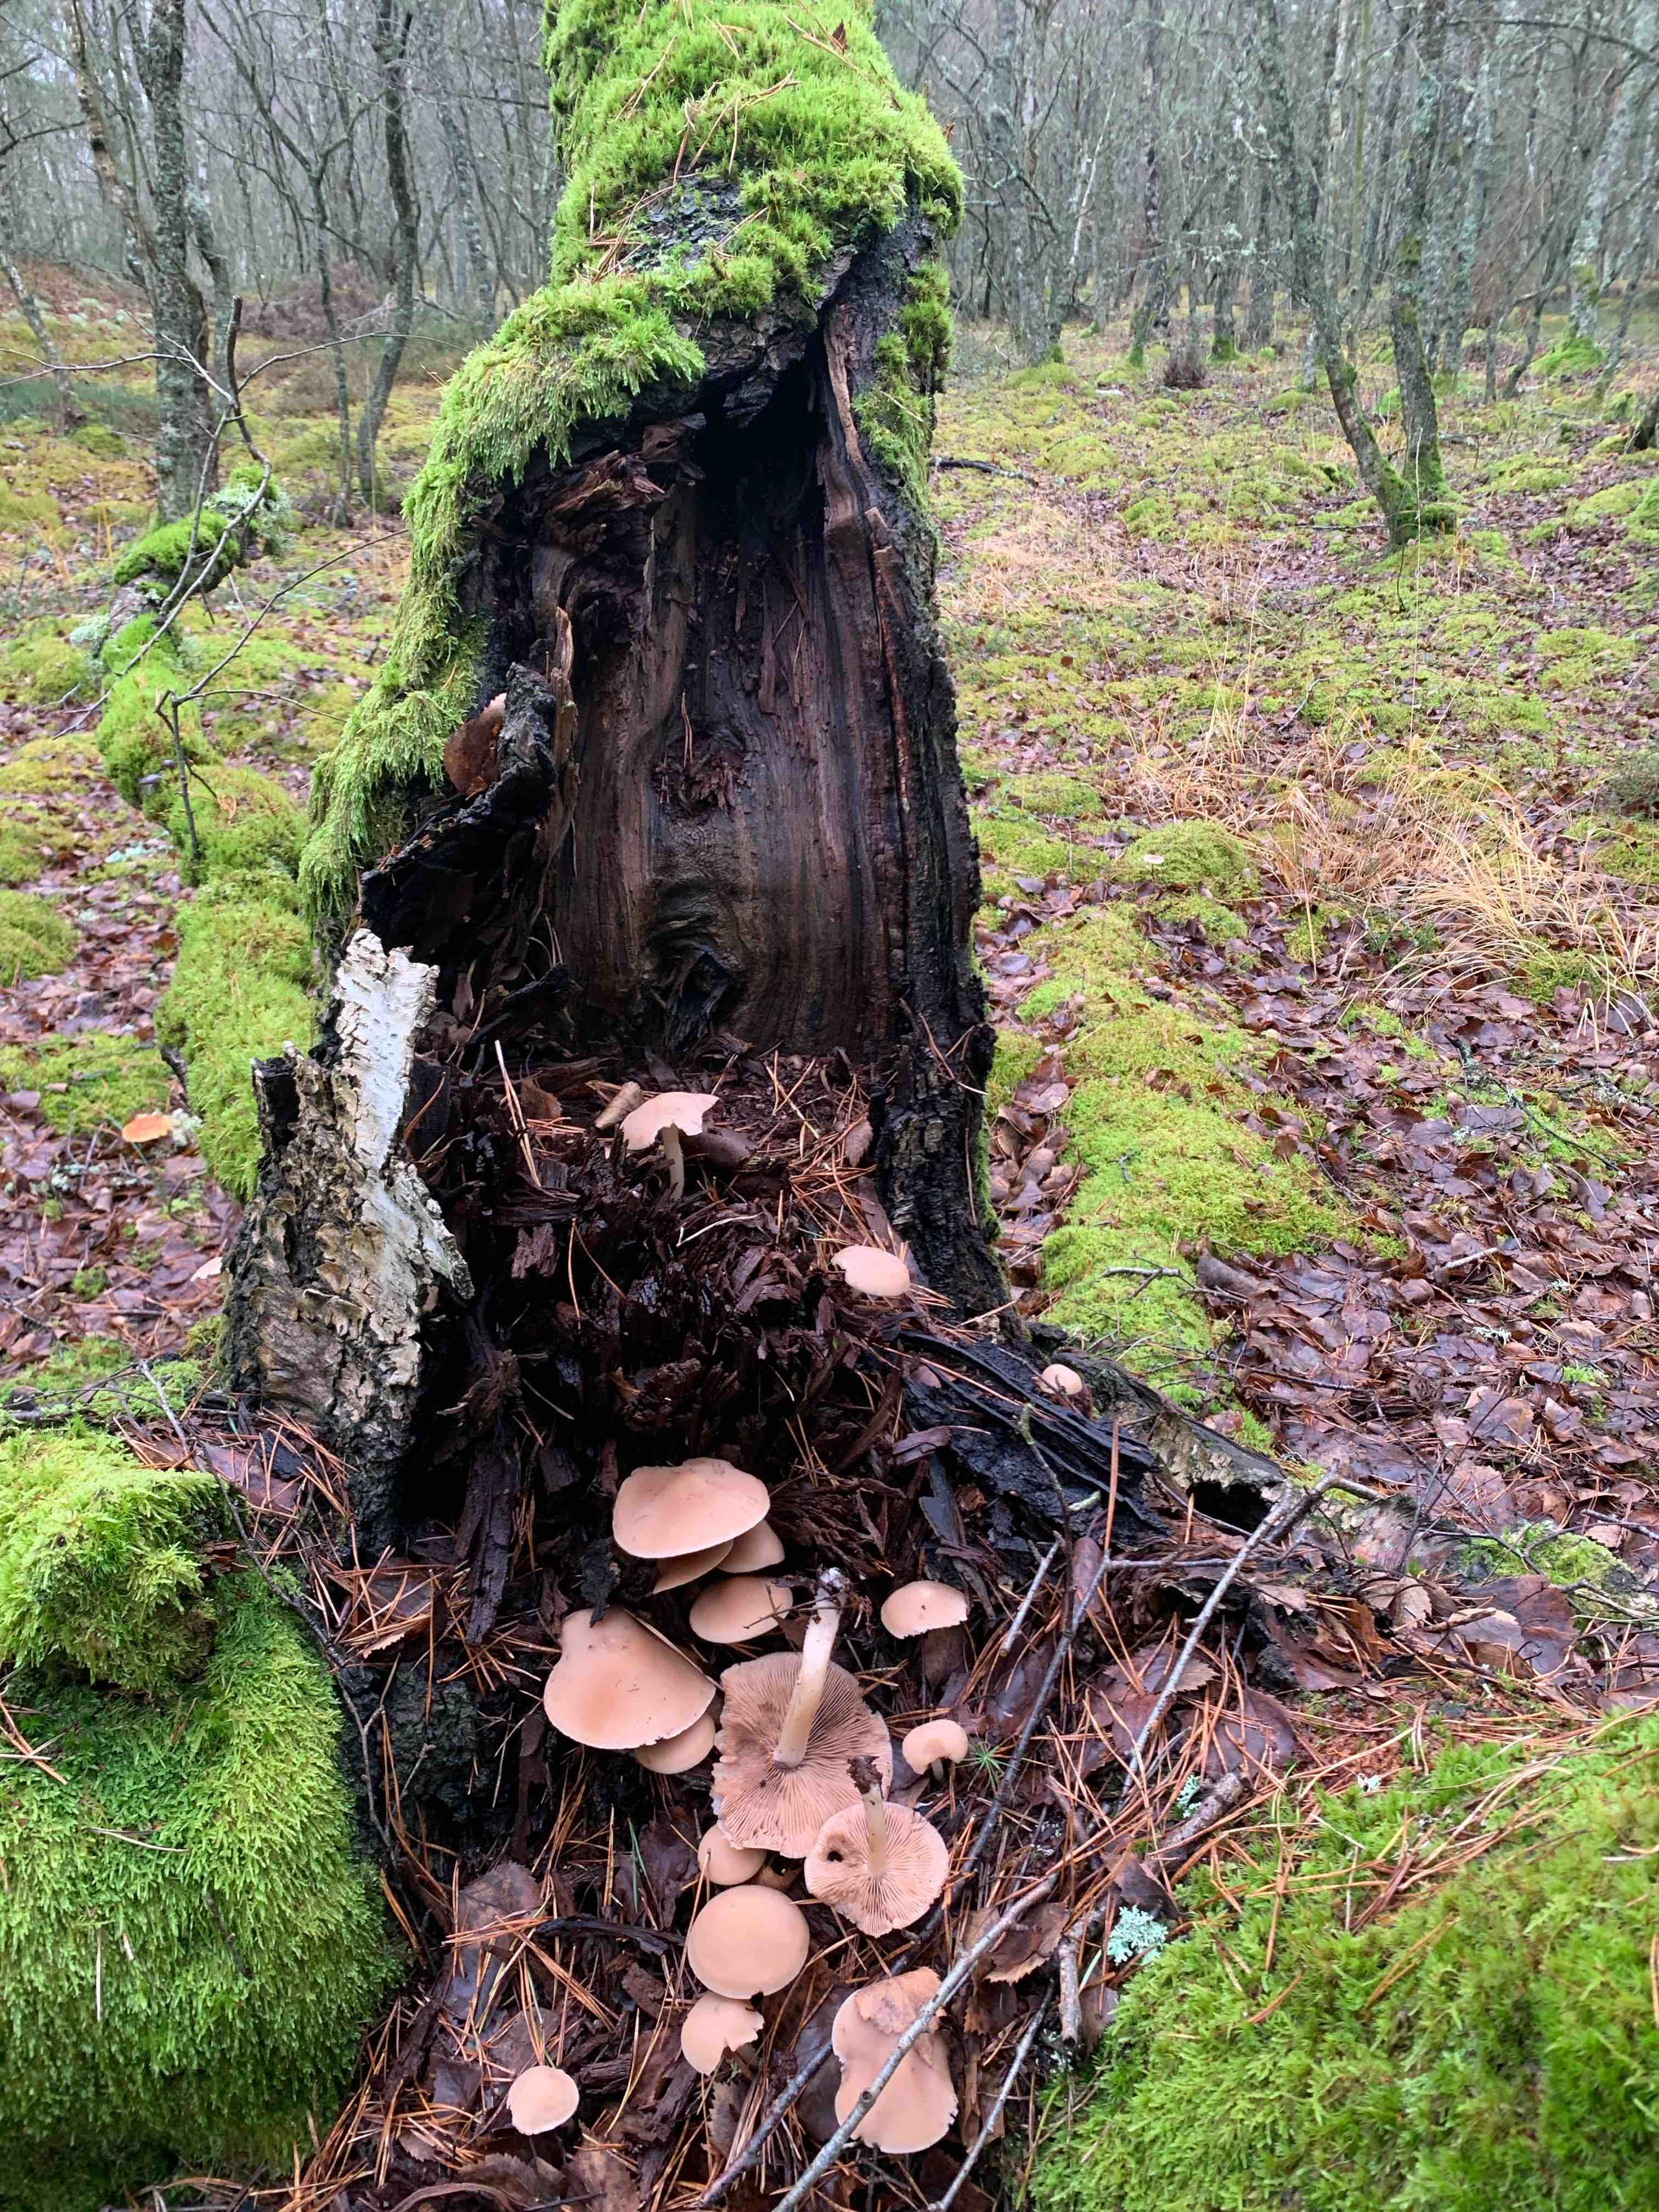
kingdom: Fungi
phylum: Basidiomycota
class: Agaricomycetes
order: Agaricales
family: Psathyrellaceae
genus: Homophron
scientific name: Homophron spadiceum
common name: daddelbrun mørkhat
